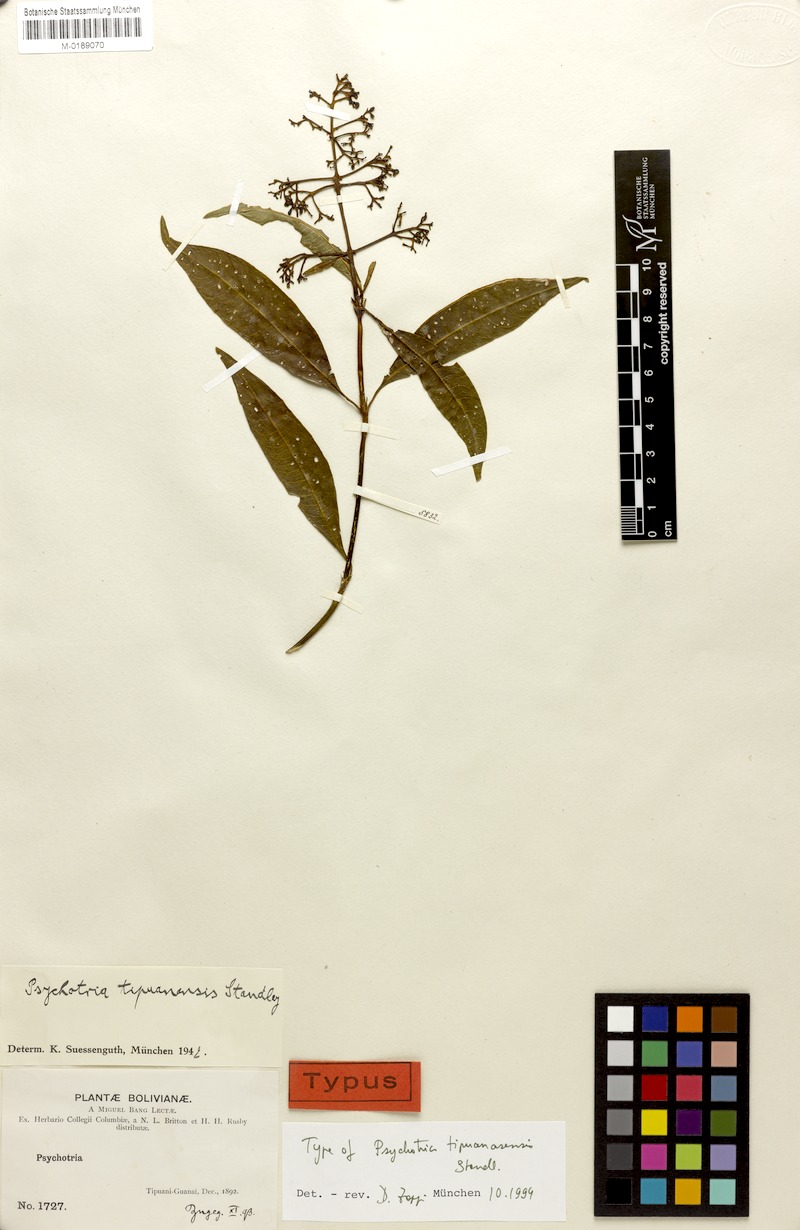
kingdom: Plantae
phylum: Tracheophyta
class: Magnoliopsida
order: Gentianales
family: Rubiaceae
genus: Palicourea
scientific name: Palicourea tristis
